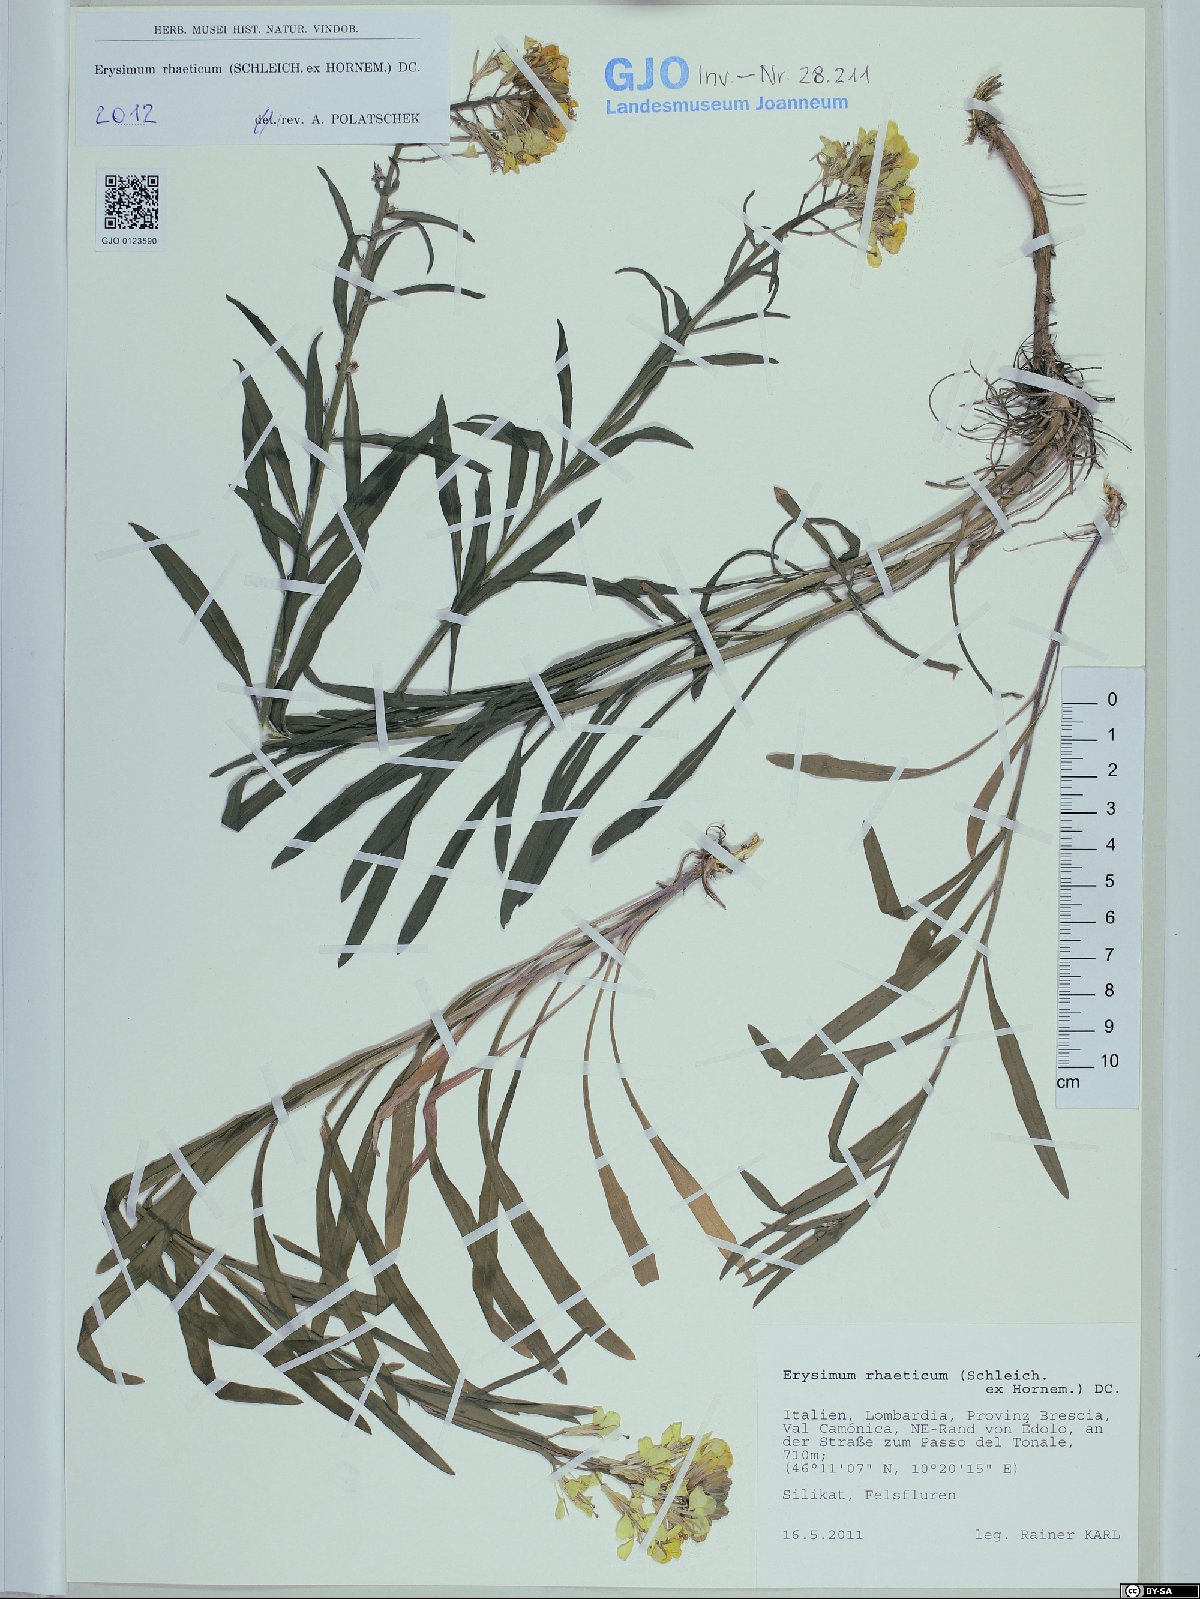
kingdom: Plantae
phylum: Tracheophyta
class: Magnoliopsida
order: Brassicales
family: Brassicaceae
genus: Erysimum
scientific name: Erysimum rhaeticum
